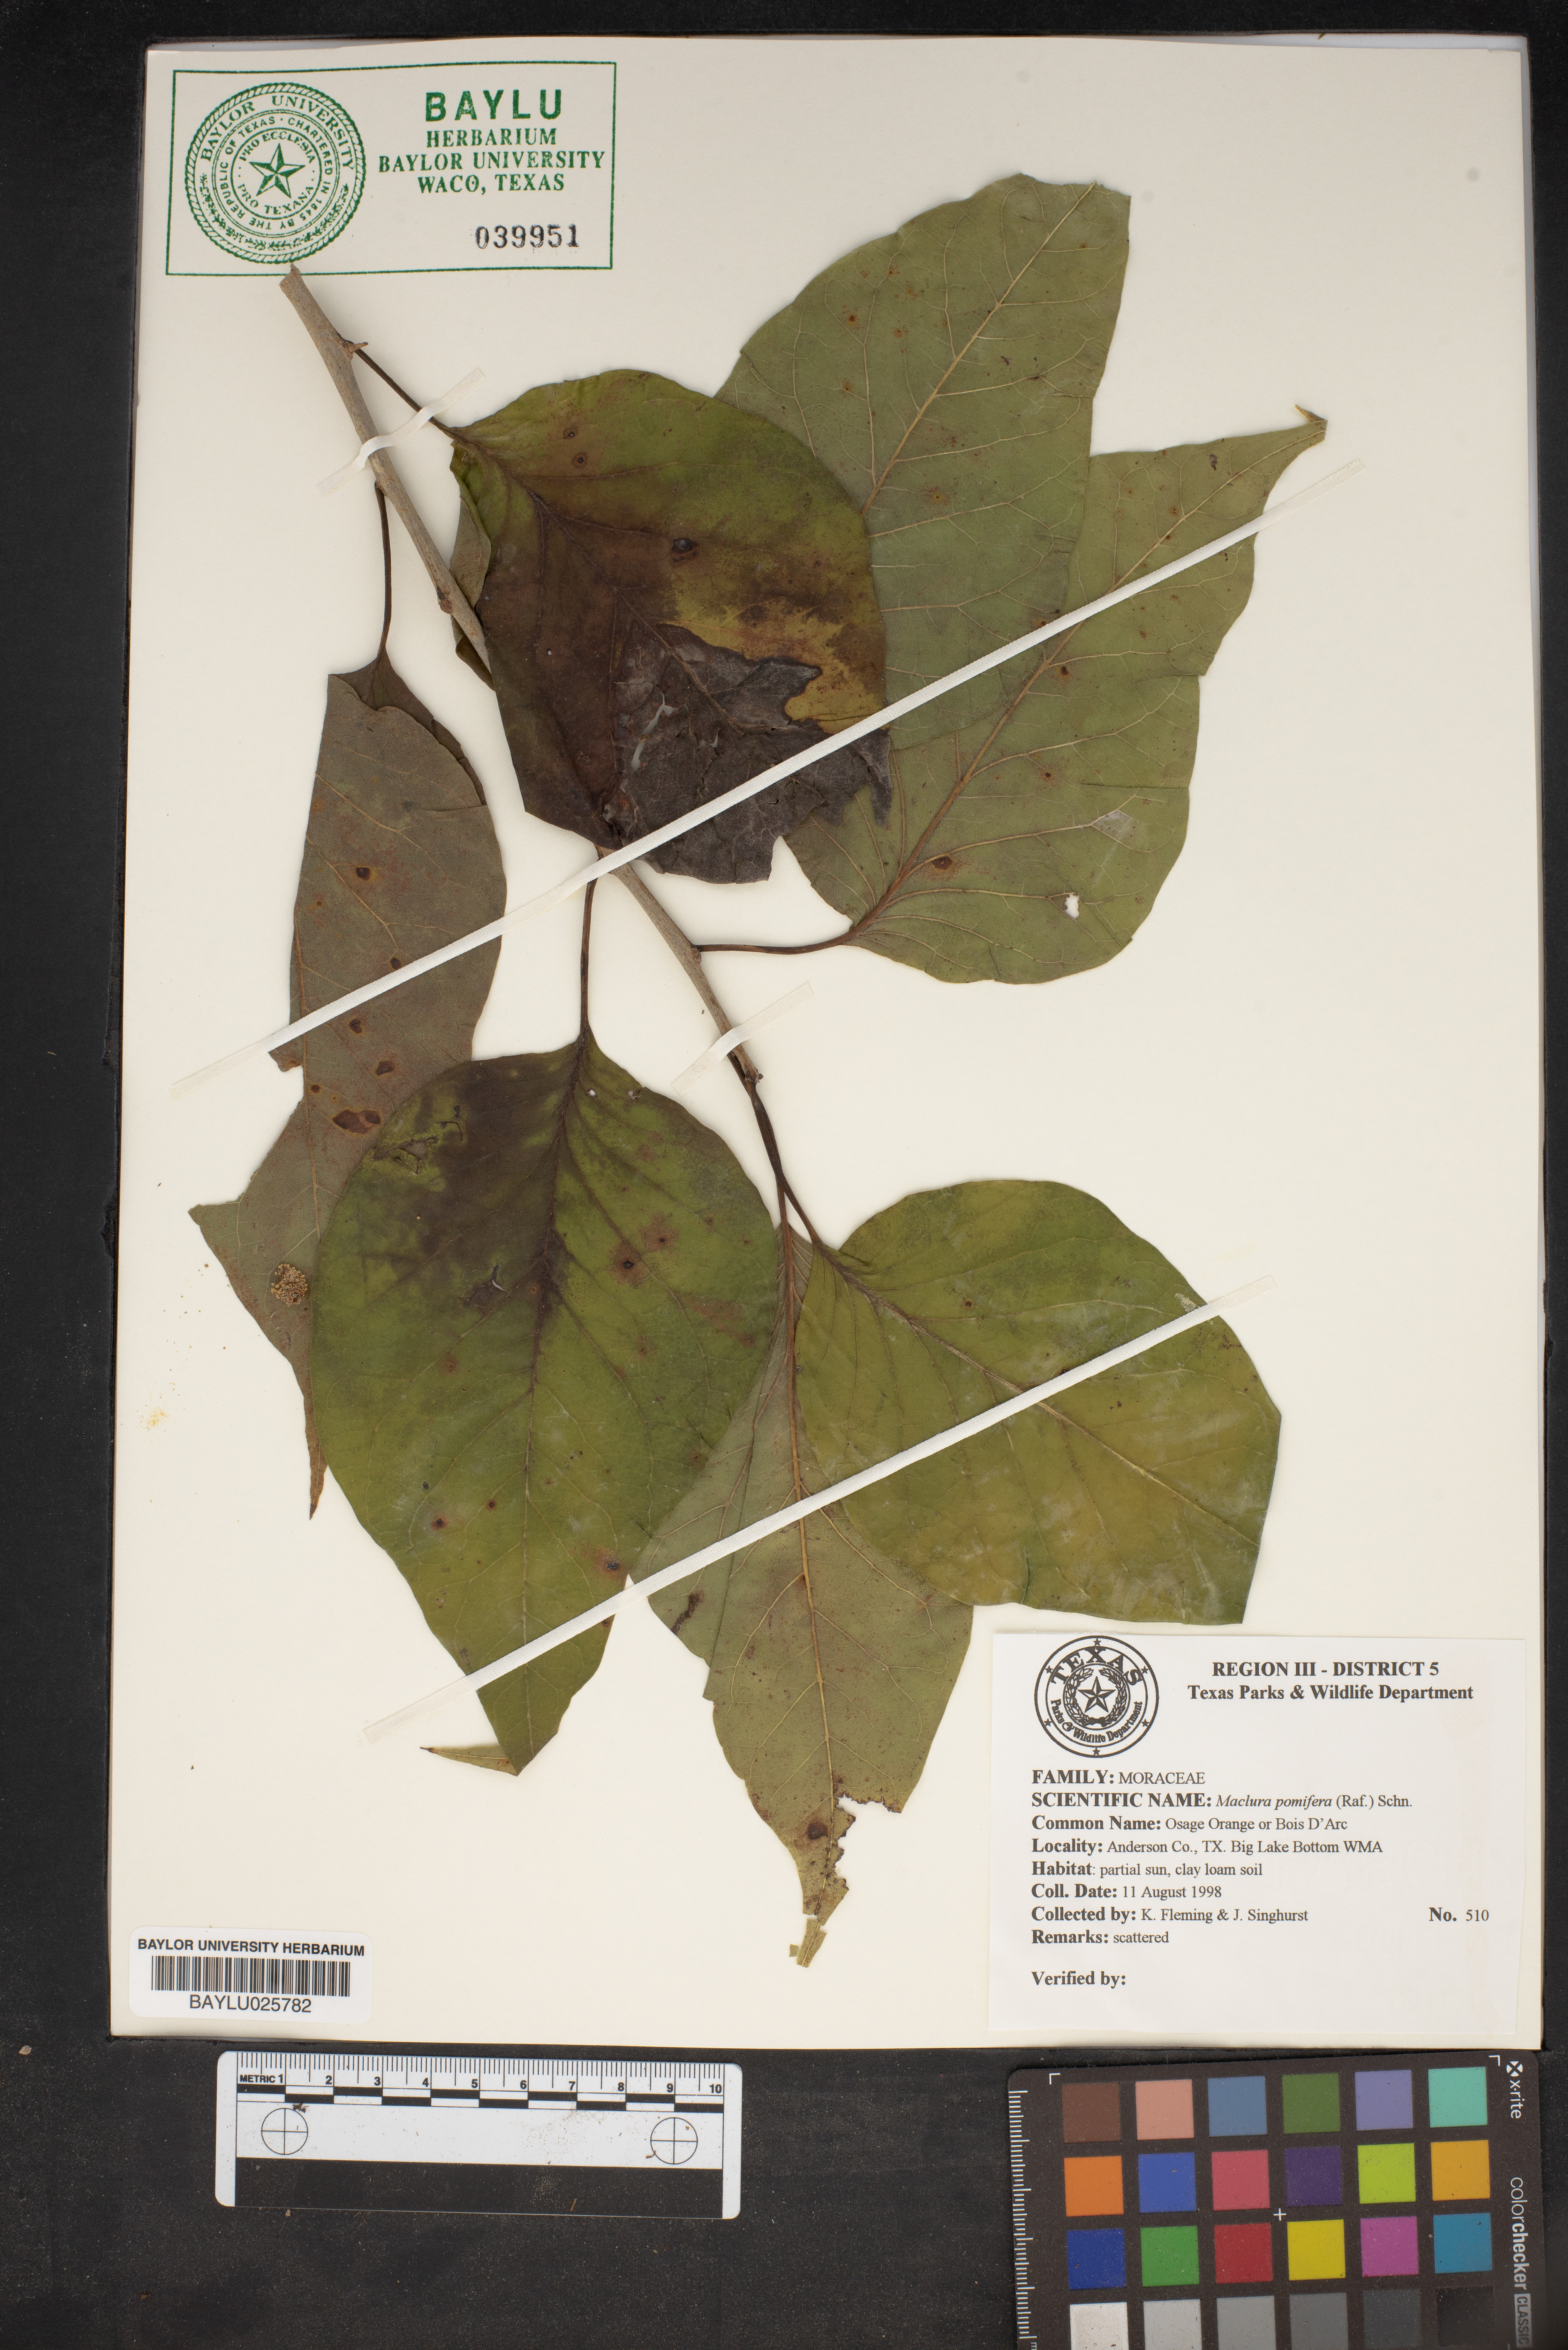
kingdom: Plantae
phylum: Tracheophyta
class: Magnoliopsida
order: Rosales
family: Moraceae
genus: Maclura
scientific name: Maclura pomifera
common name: Osage-orange
